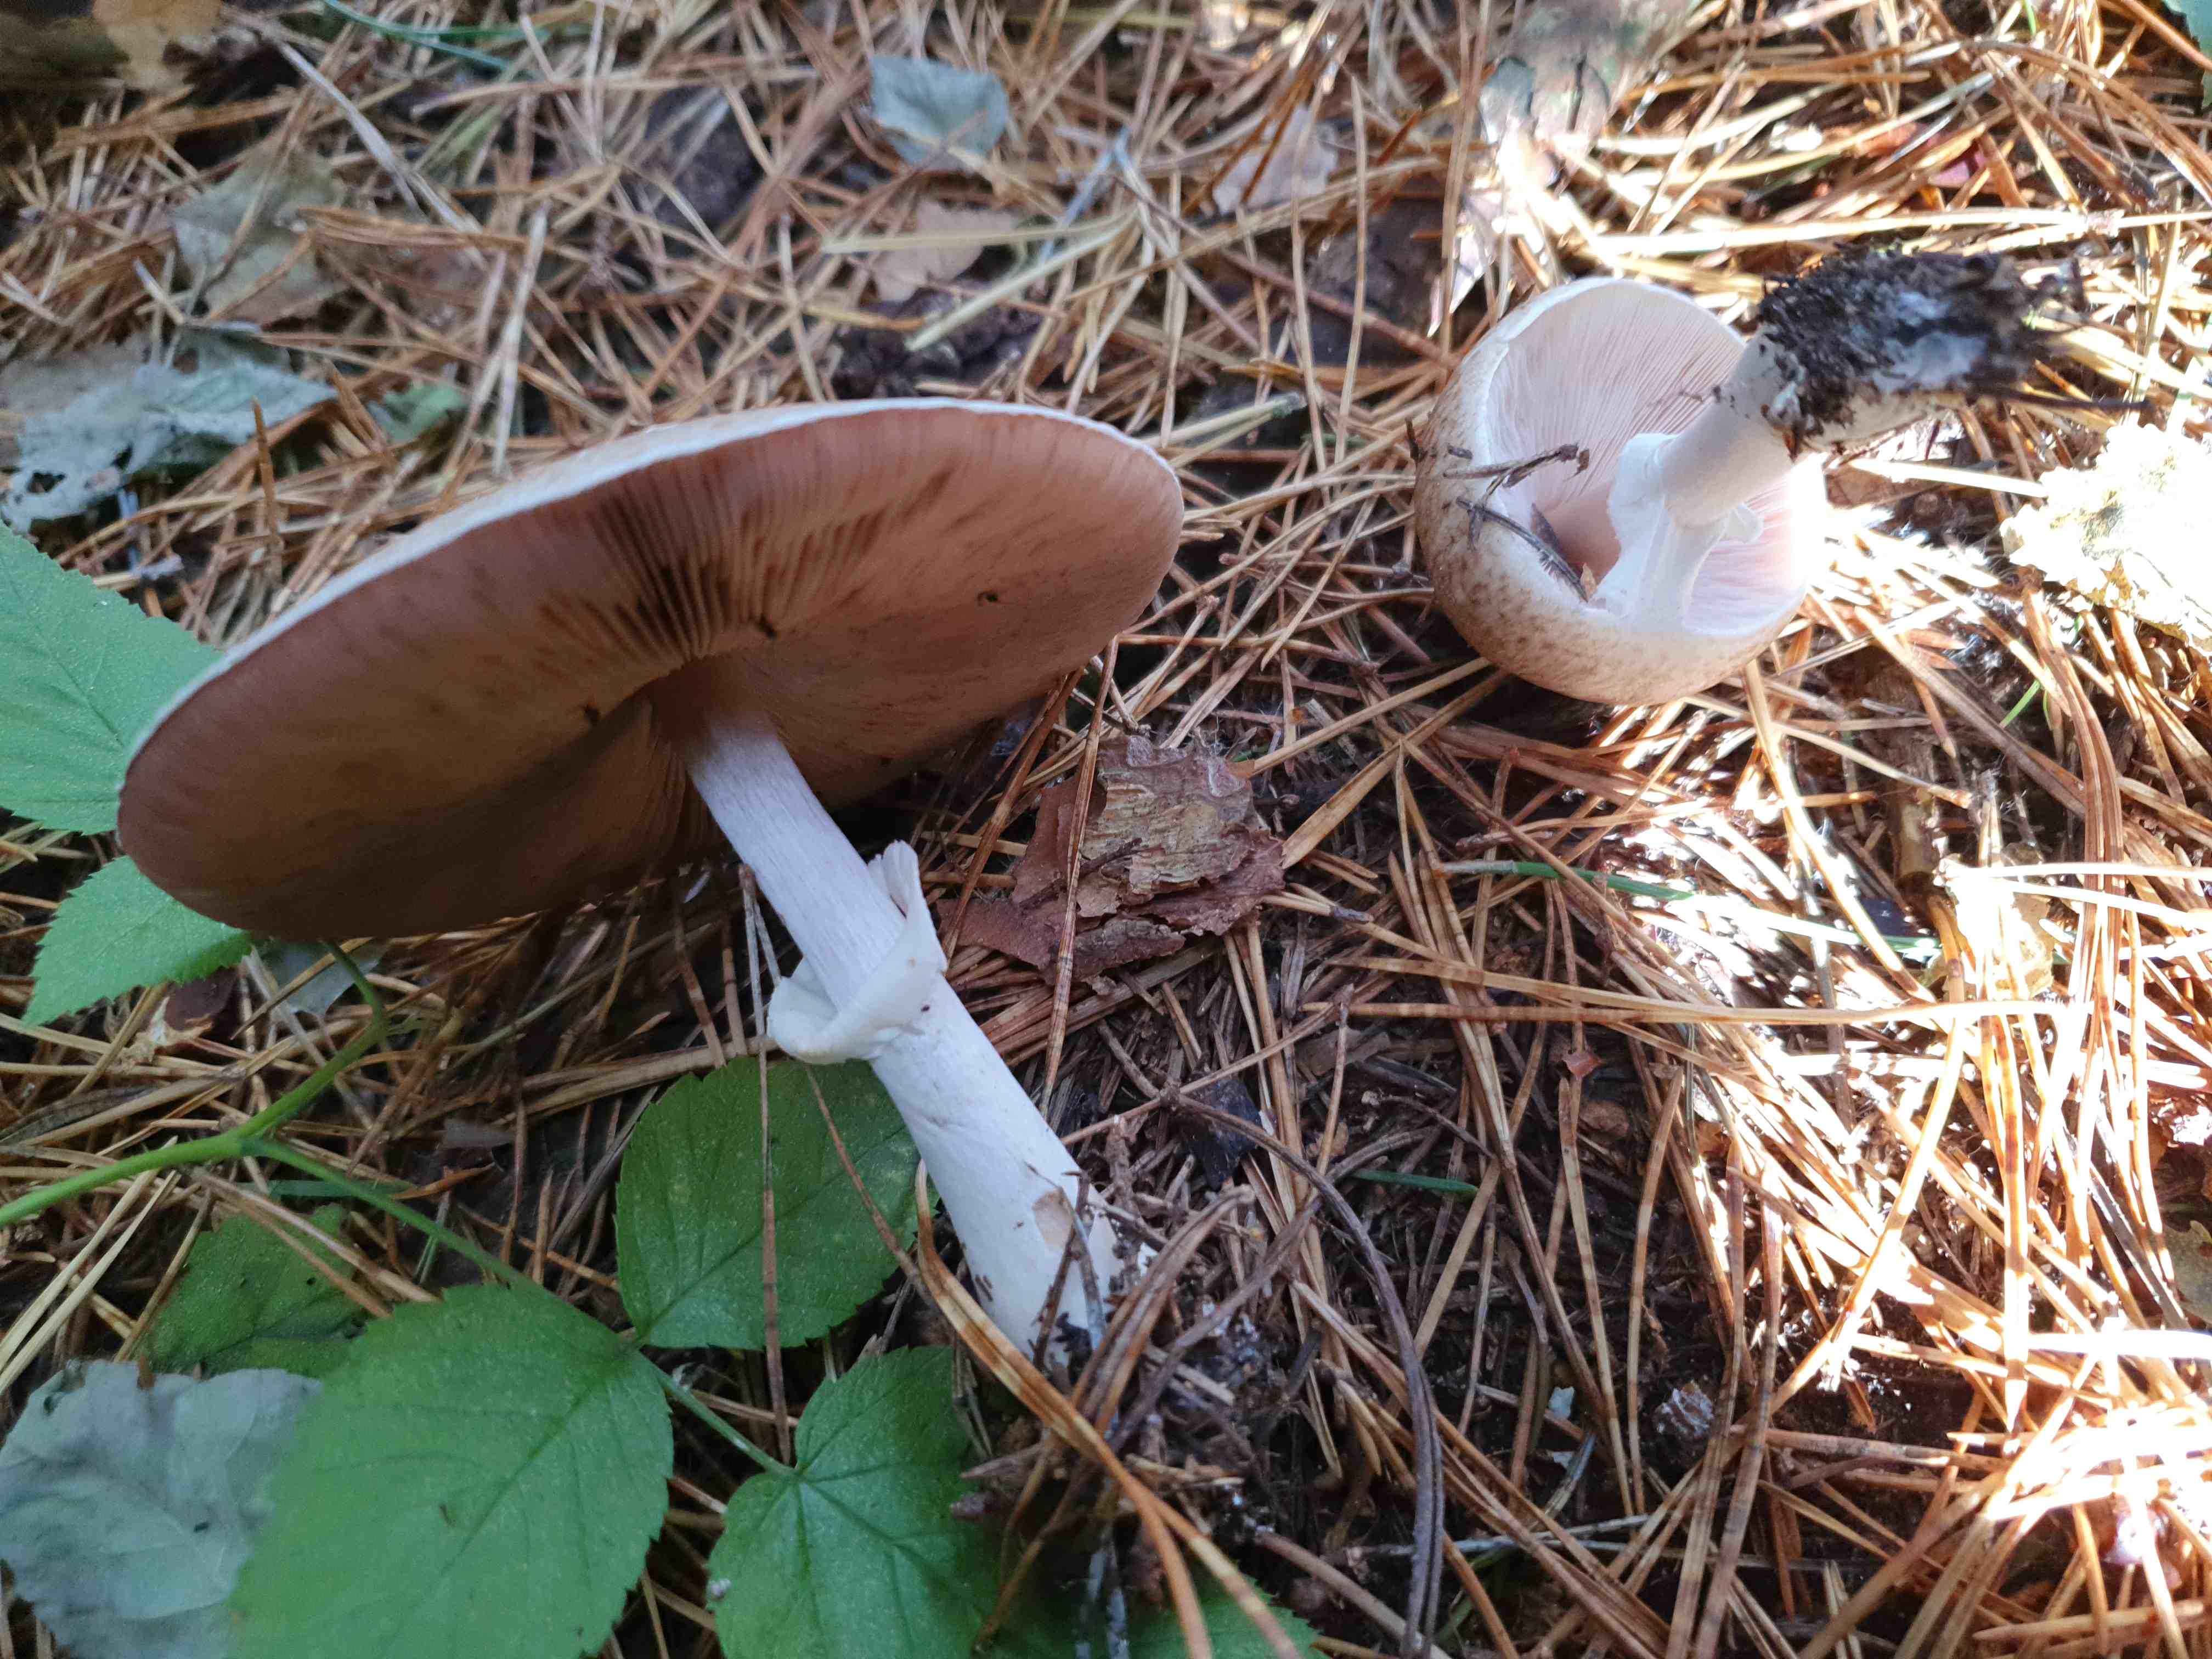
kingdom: Fungi
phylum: Basidiomycota
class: Agaricomycetes
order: Agaricales
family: Agaricaceae
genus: Agaricus
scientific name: Agaricus impudicus
